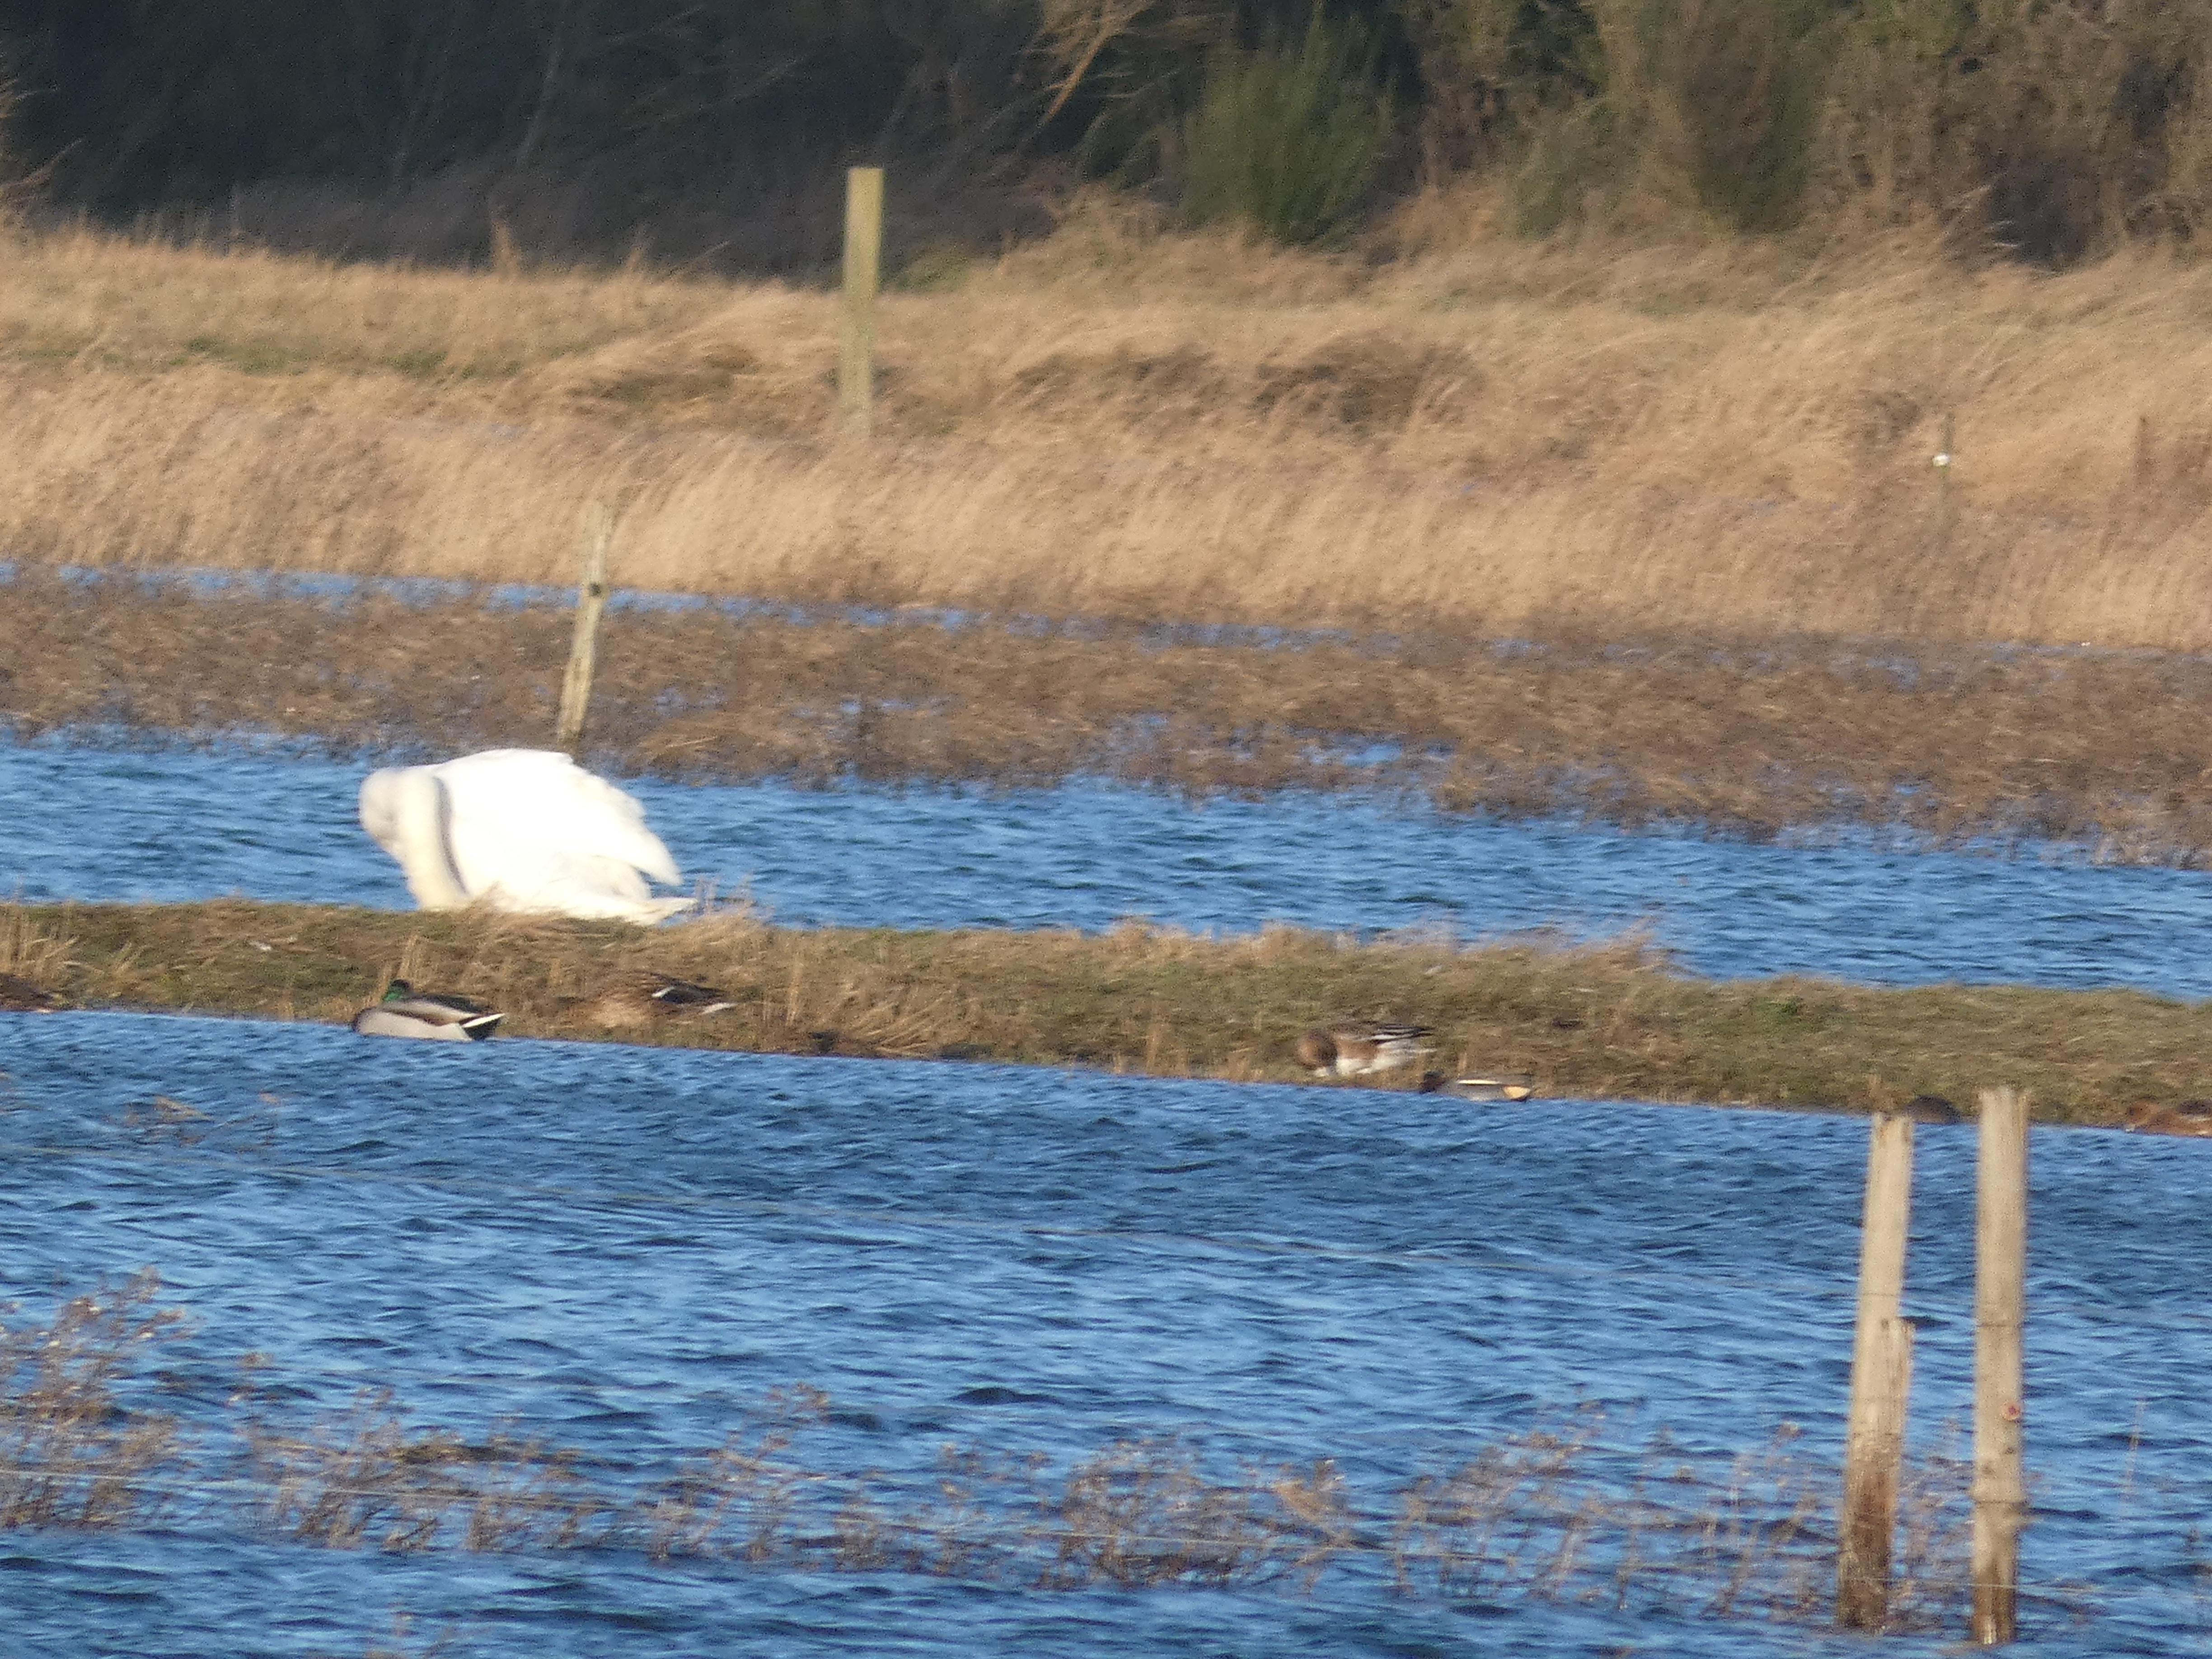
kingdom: Animalia
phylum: Chordata
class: Aves
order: Anseriformes
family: Anatidae
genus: Anas
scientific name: Anas crecca
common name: Krikand
